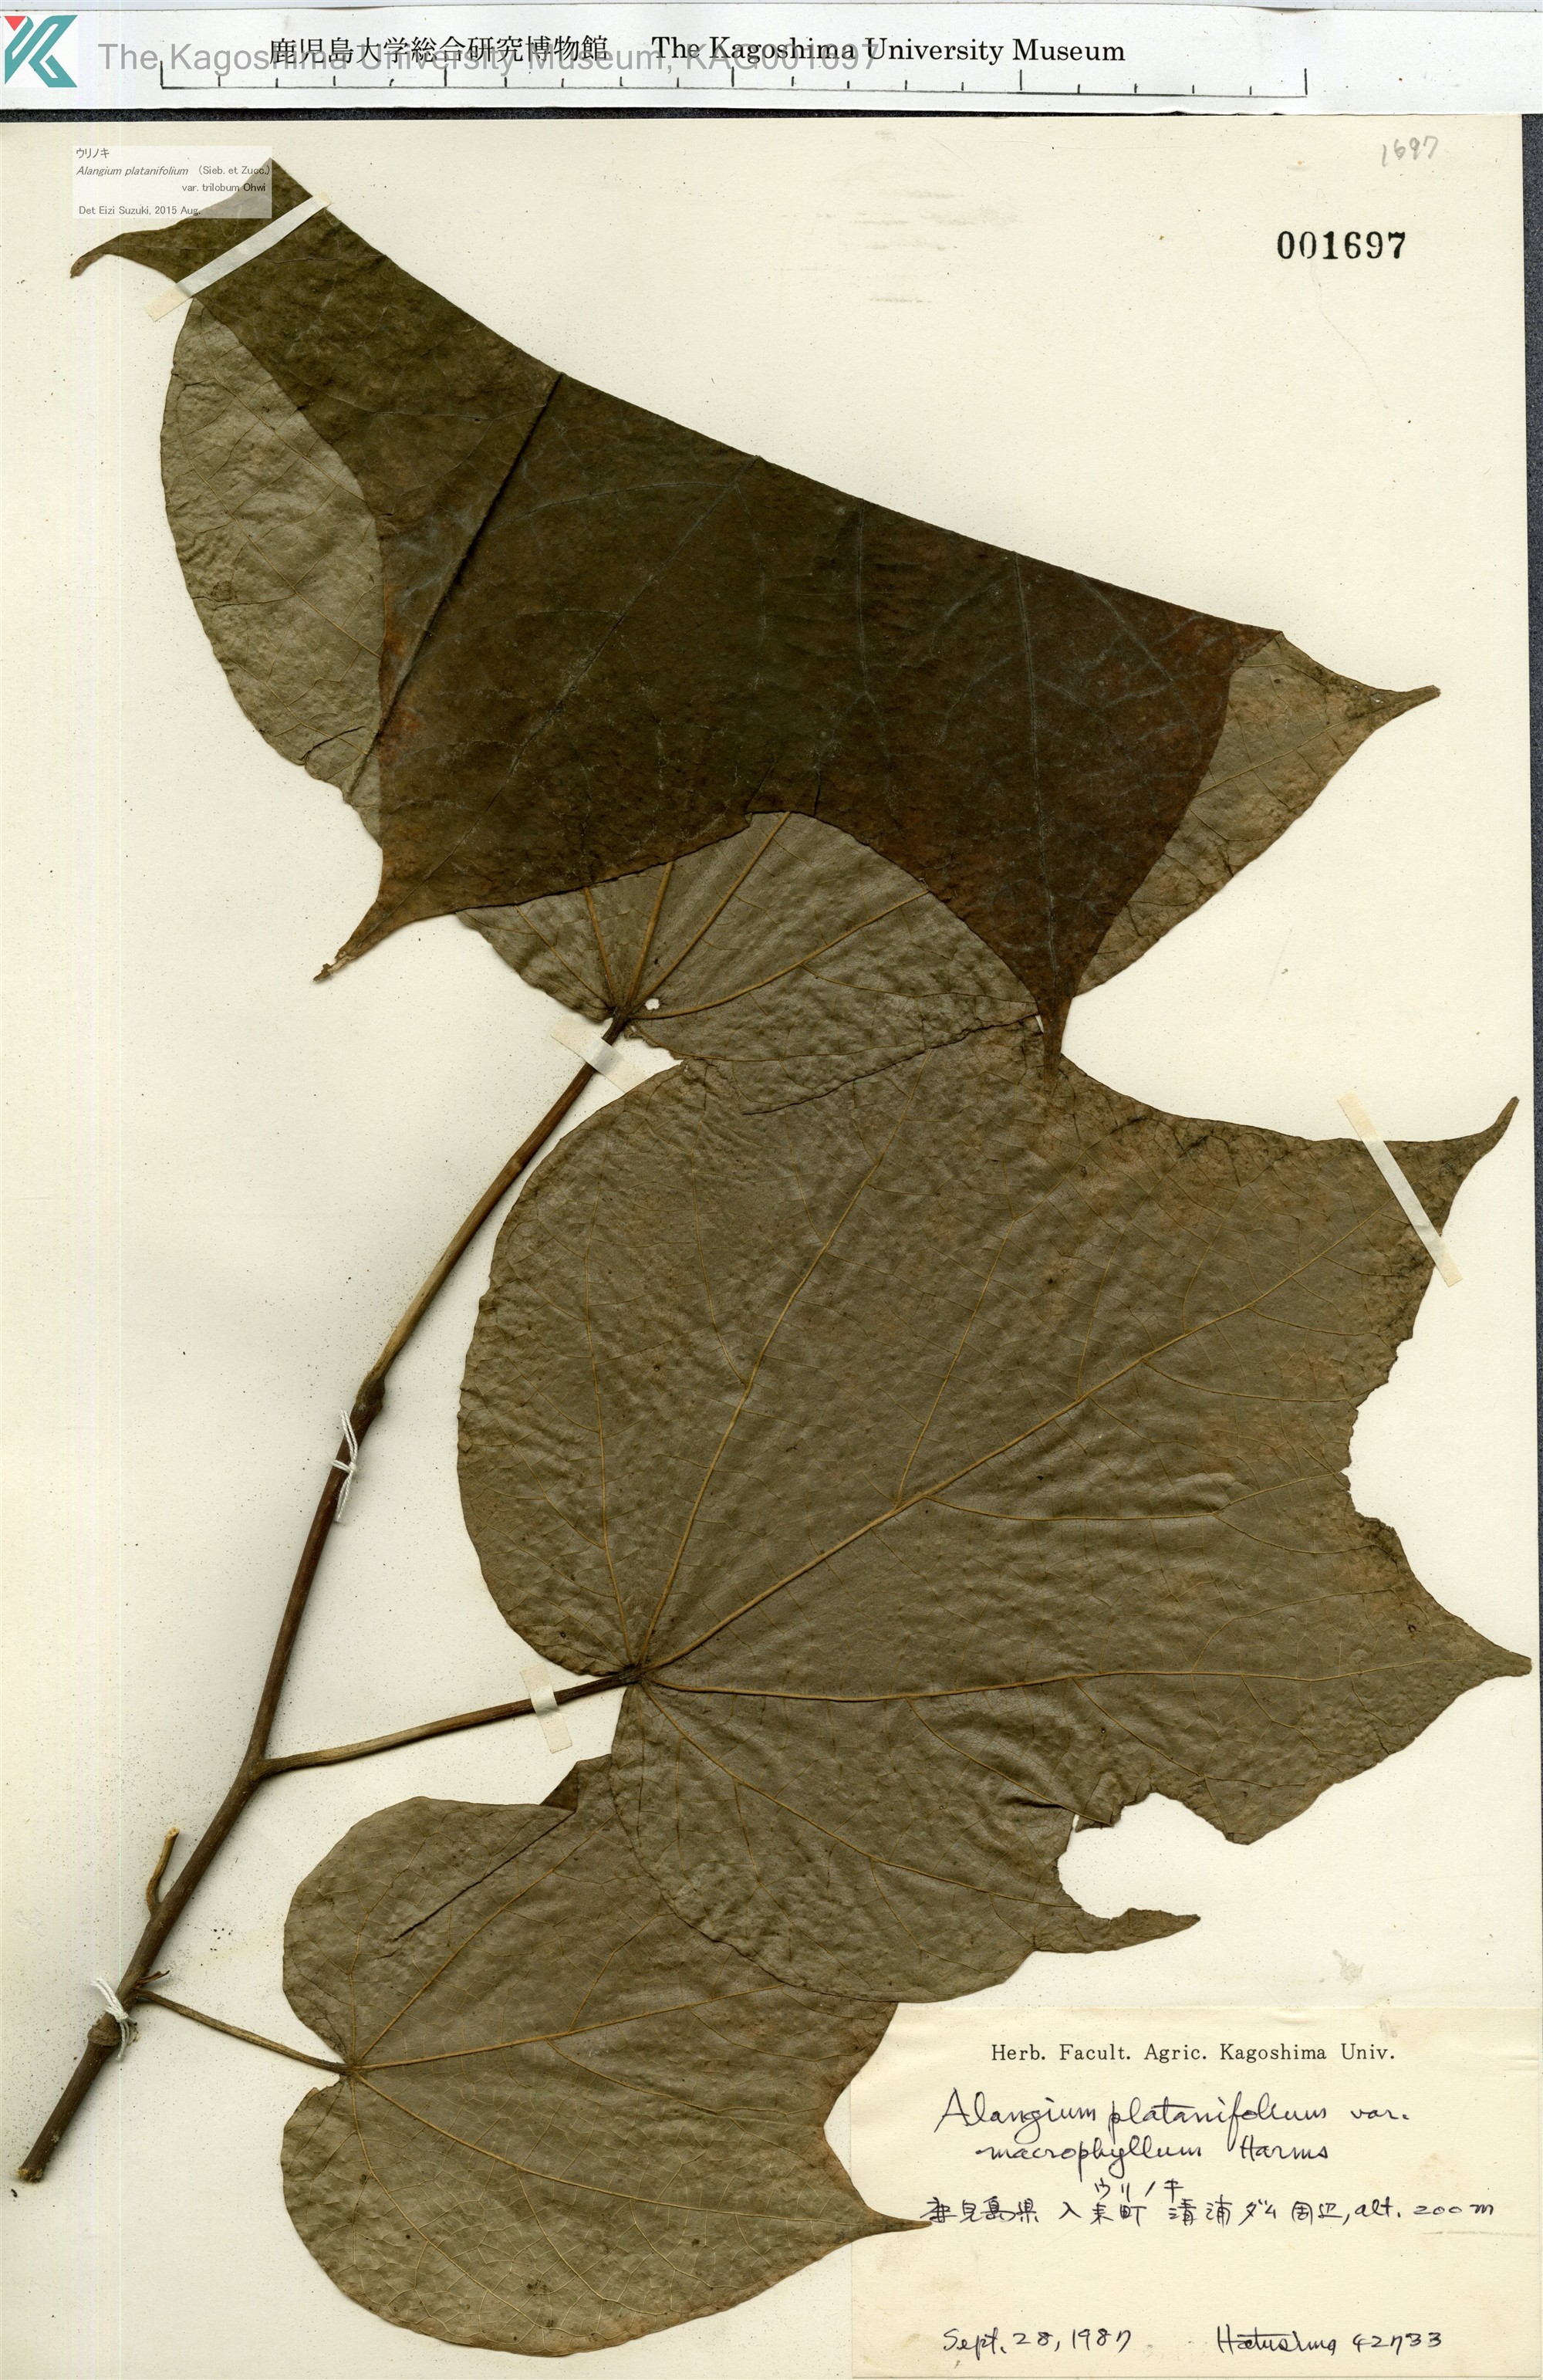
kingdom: Plantae
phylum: Tracheophyta
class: Magnoliopsida
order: Cornales
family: Cornaceae
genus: Alangium
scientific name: Alangium platanifolium
